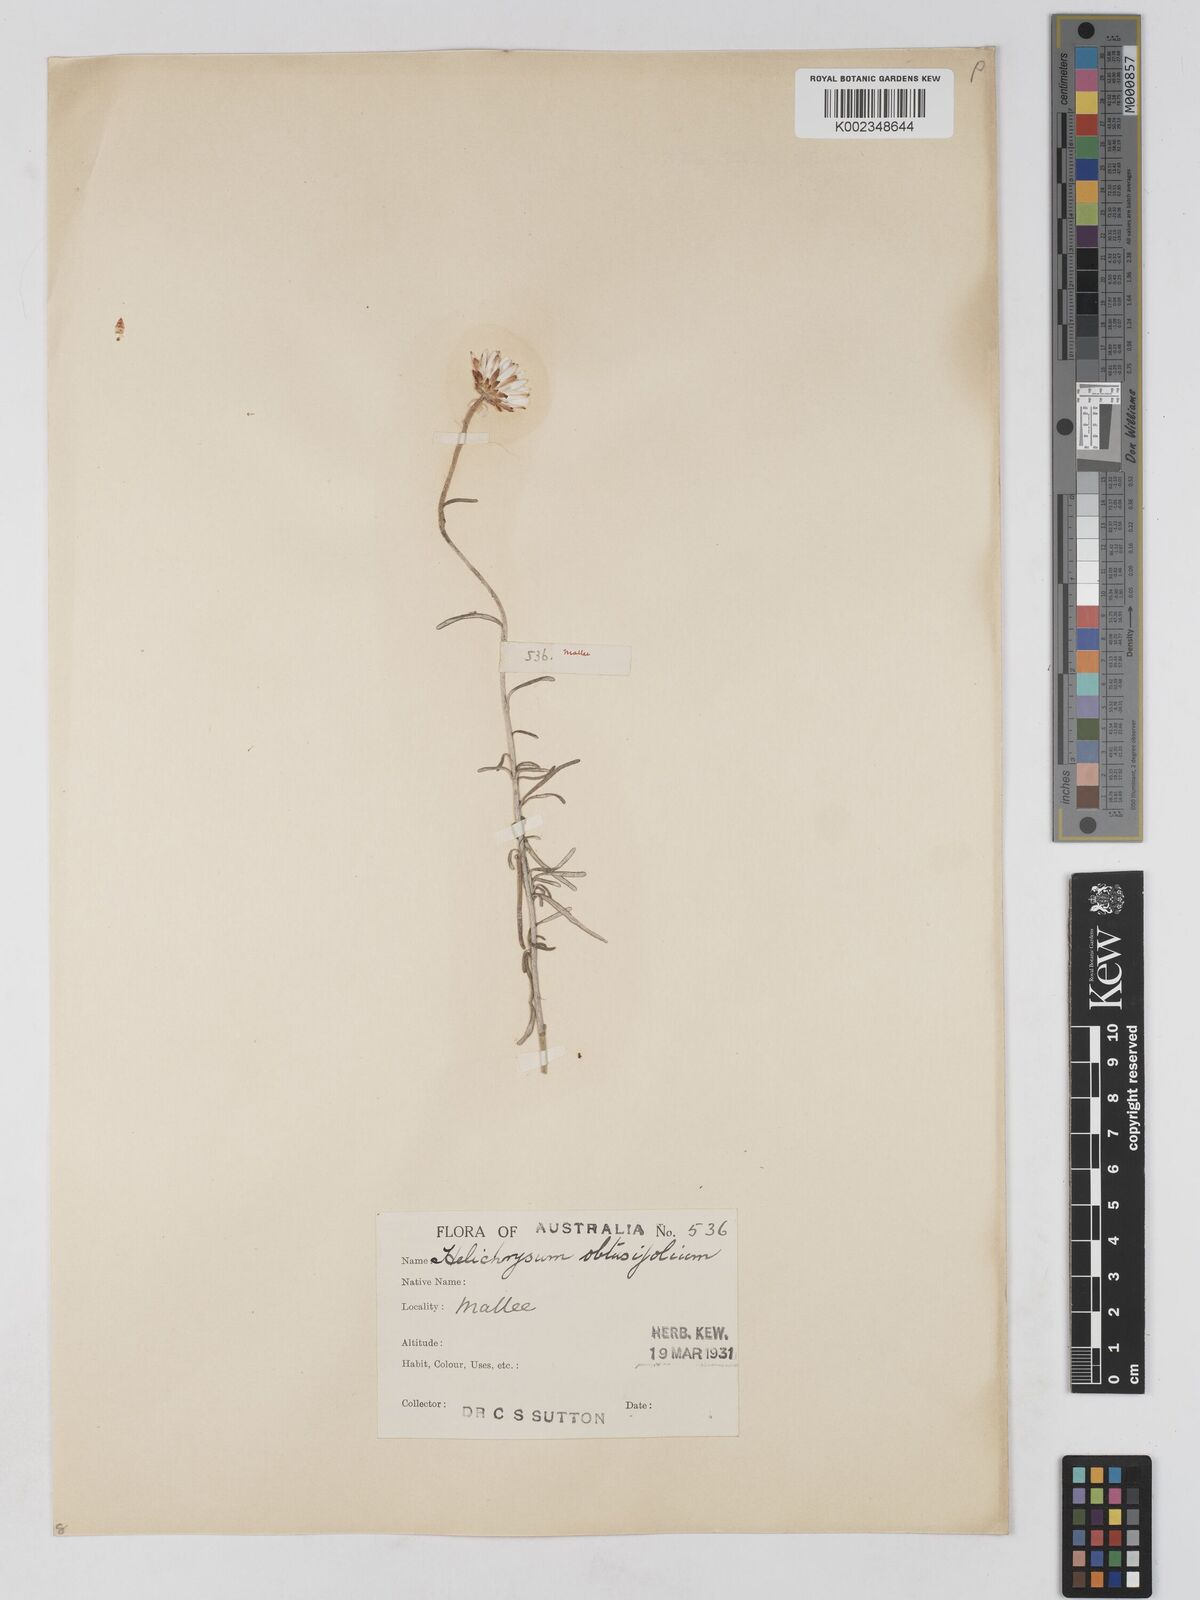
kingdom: Plantae
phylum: Tracheophyta
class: Magnoliopsida
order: Asterales
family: Asteraceae
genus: Argentipallium
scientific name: Argentipallium obtusifolium
